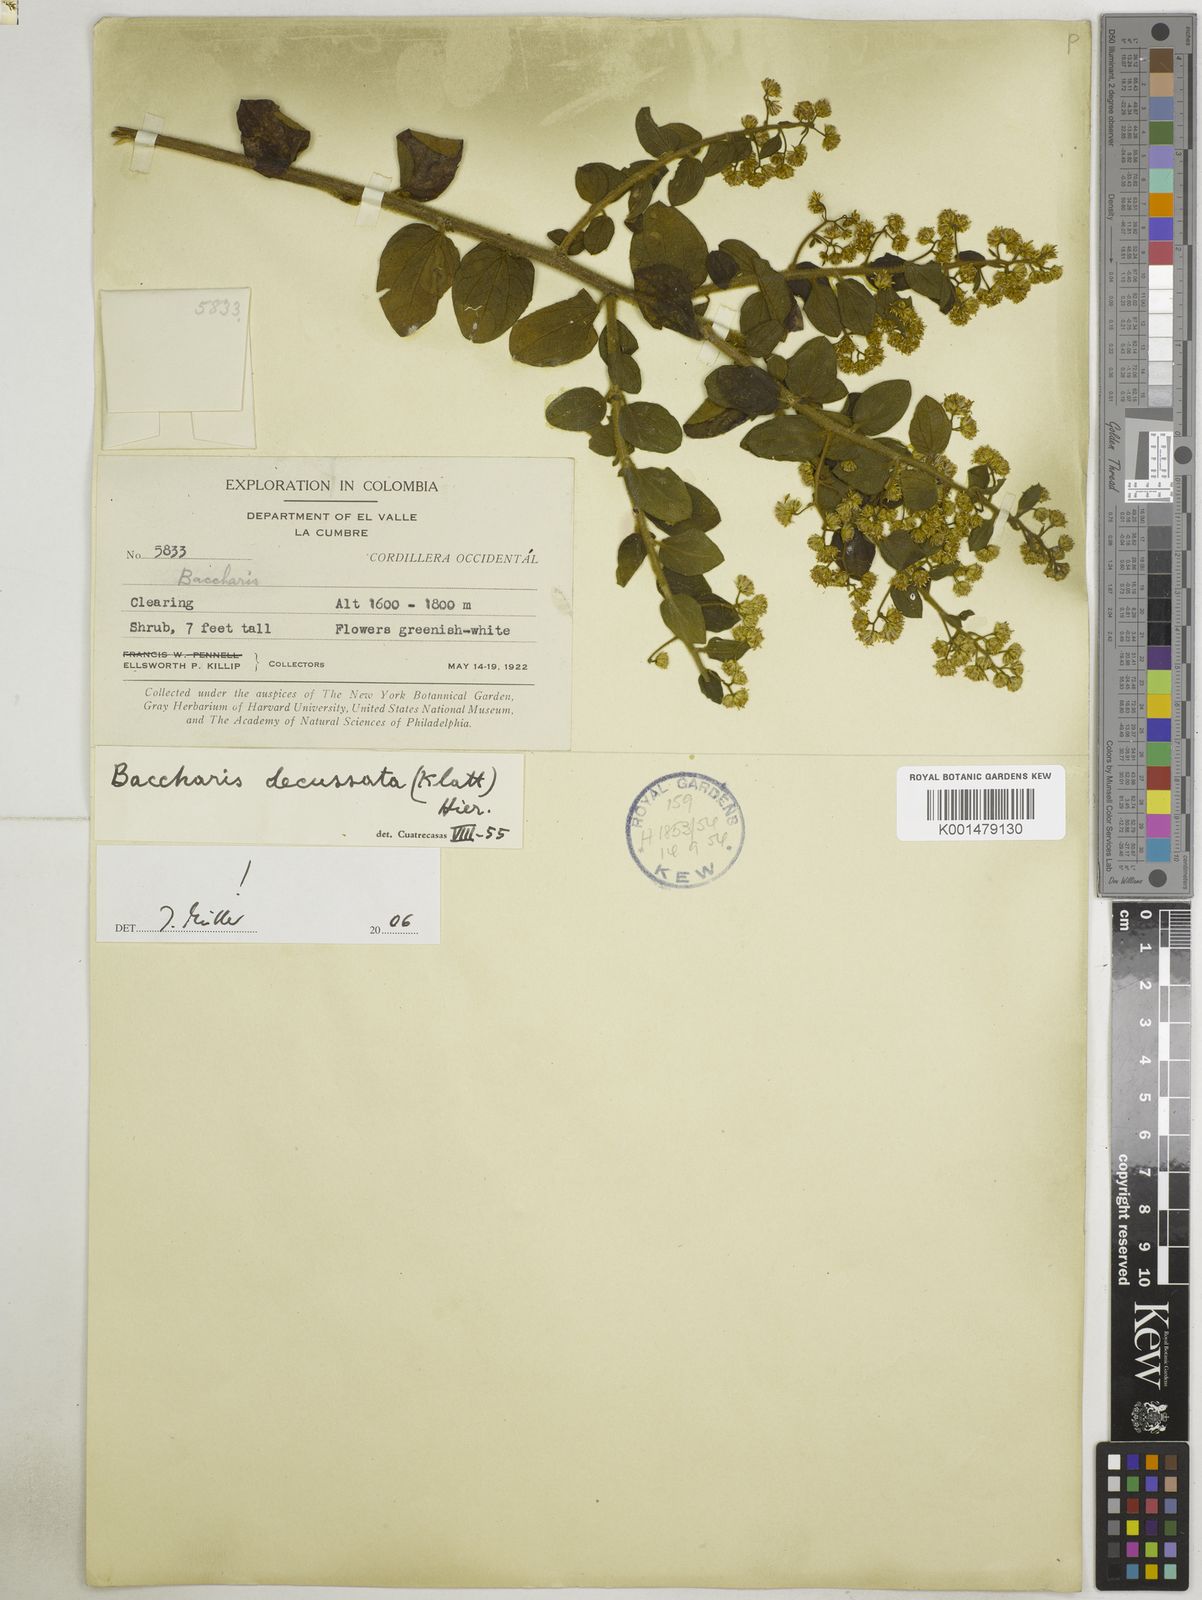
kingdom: Plantae
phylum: Tracheophyta
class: Magnoliopsida
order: Asterales
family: Asteraceae
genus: Baccharis
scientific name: Baccharis decussata
